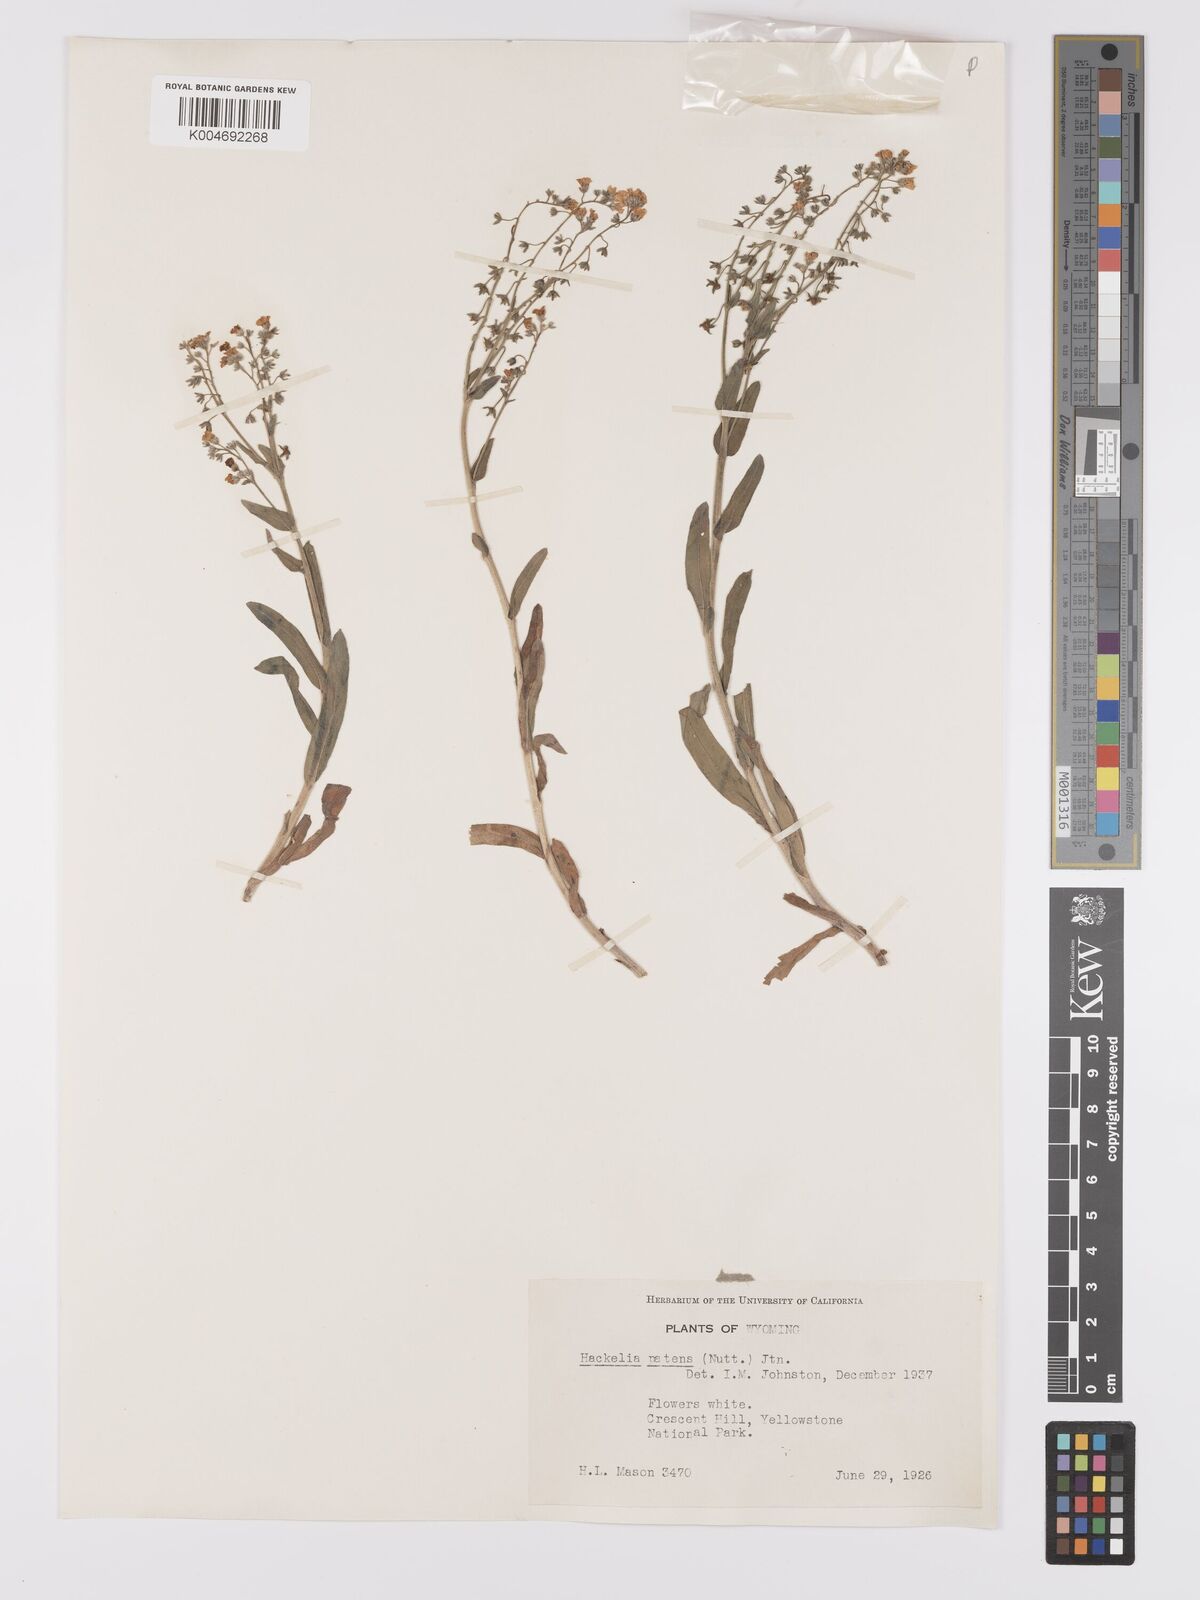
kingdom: Plantae
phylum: Tracheophyta
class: Magnoliopsida
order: Boraginales
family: Boraginaceae
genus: Hackelia
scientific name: Hackelia patens
